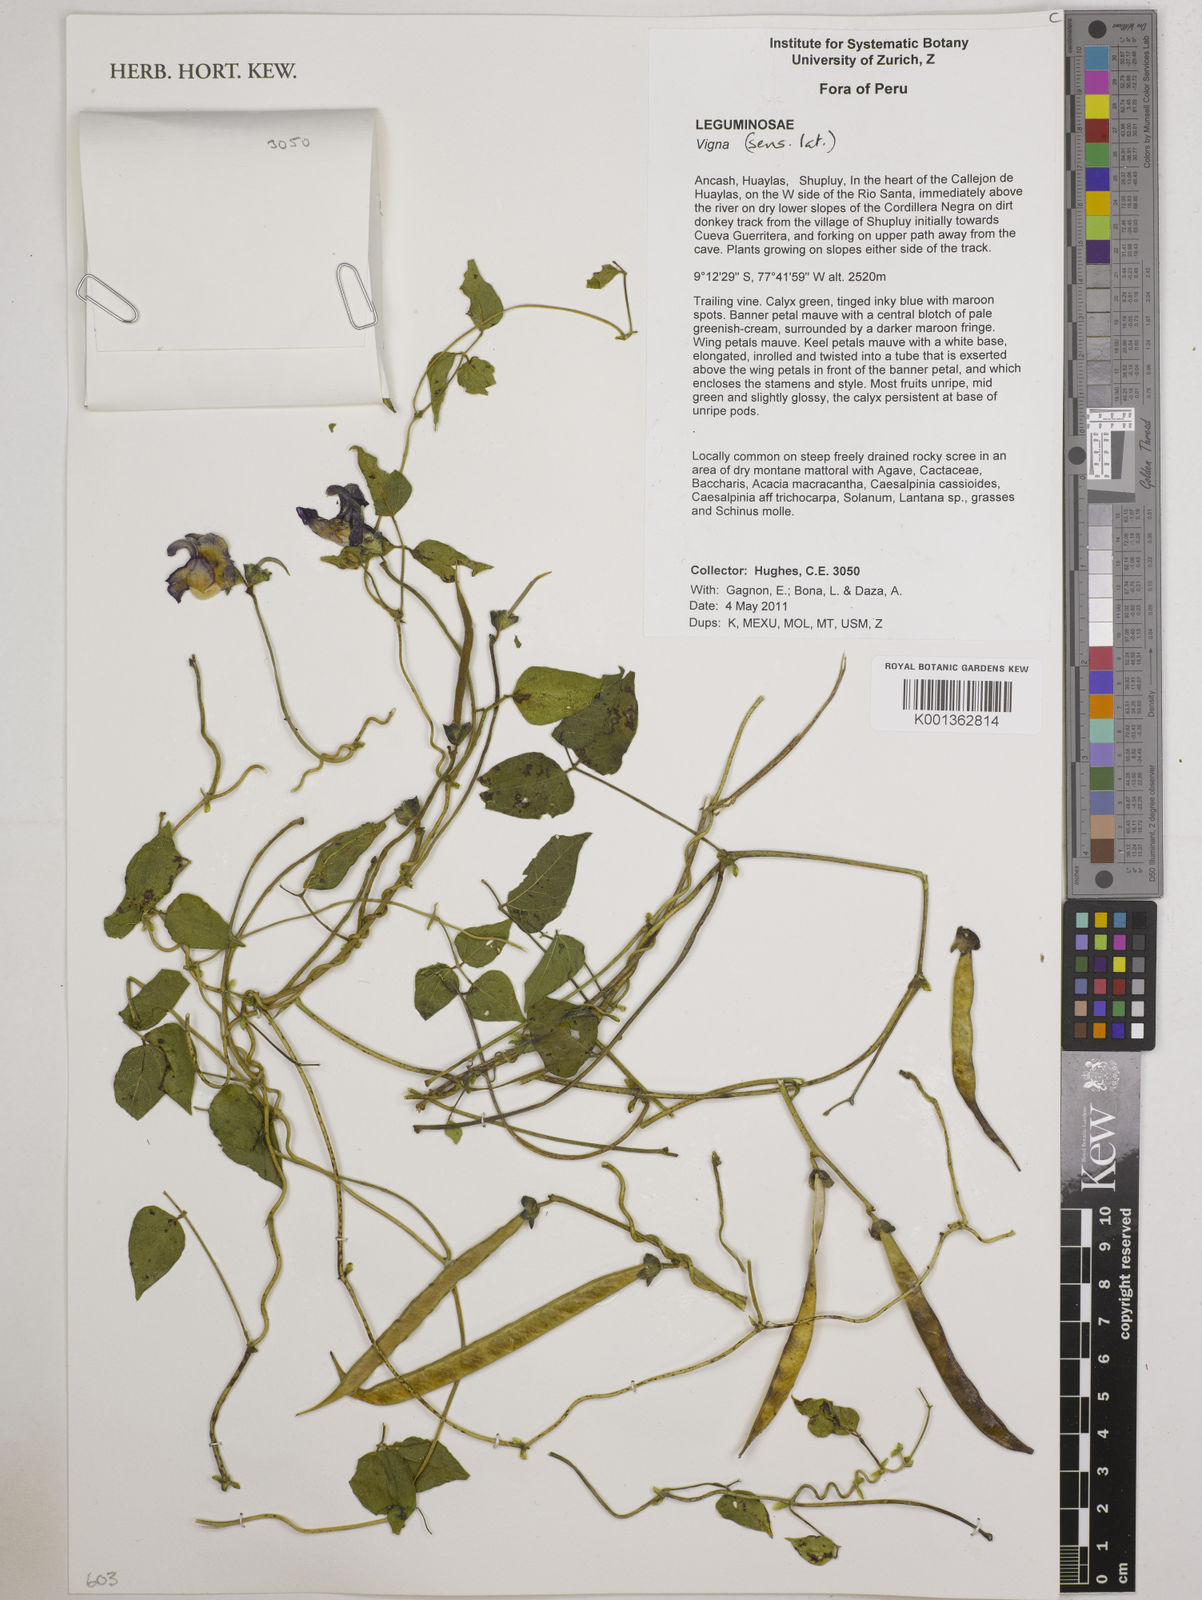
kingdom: Plantae
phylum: Tracheophyta
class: Magnoliopsida
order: Fabales
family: Fabaceae
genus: Vigna
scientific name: Vigna
